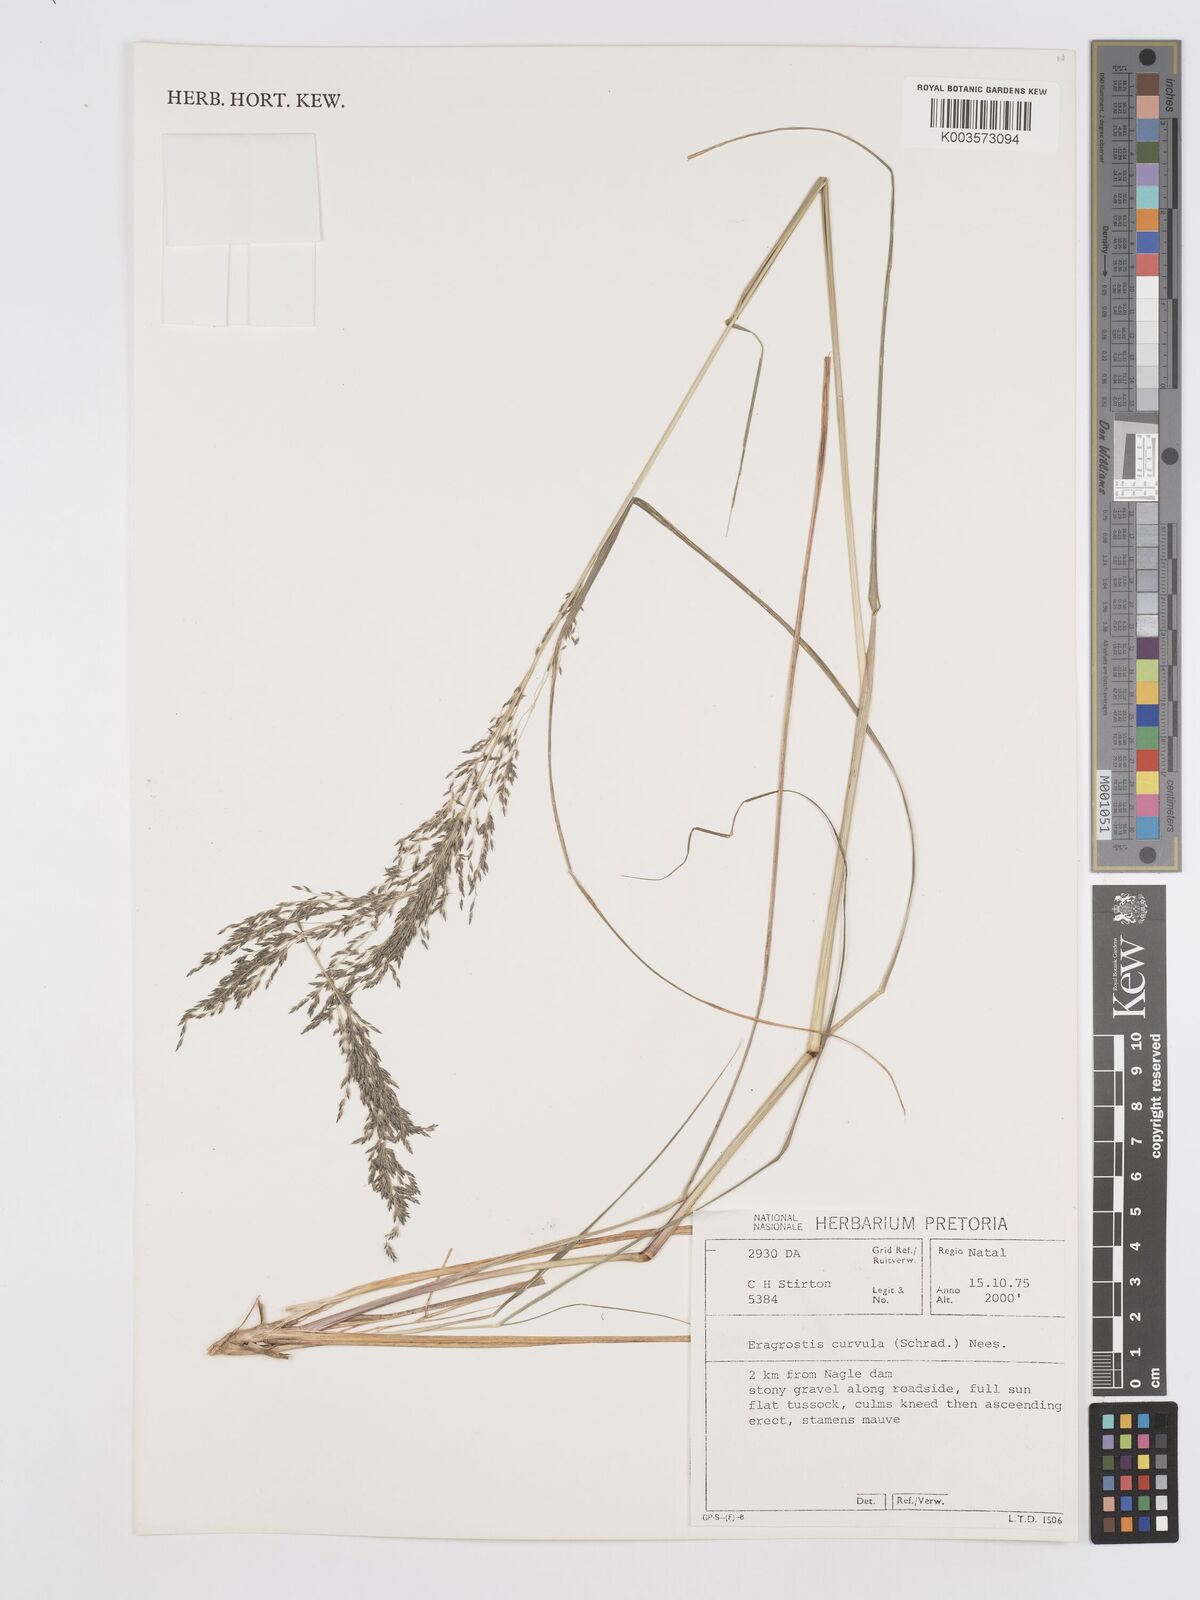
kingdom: Plantae
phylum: Tracheophyta
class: Liliopsida
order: Poales
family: Poaceae
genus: Eragrostis
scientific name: Eragrostis curvula
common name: African love-grass
